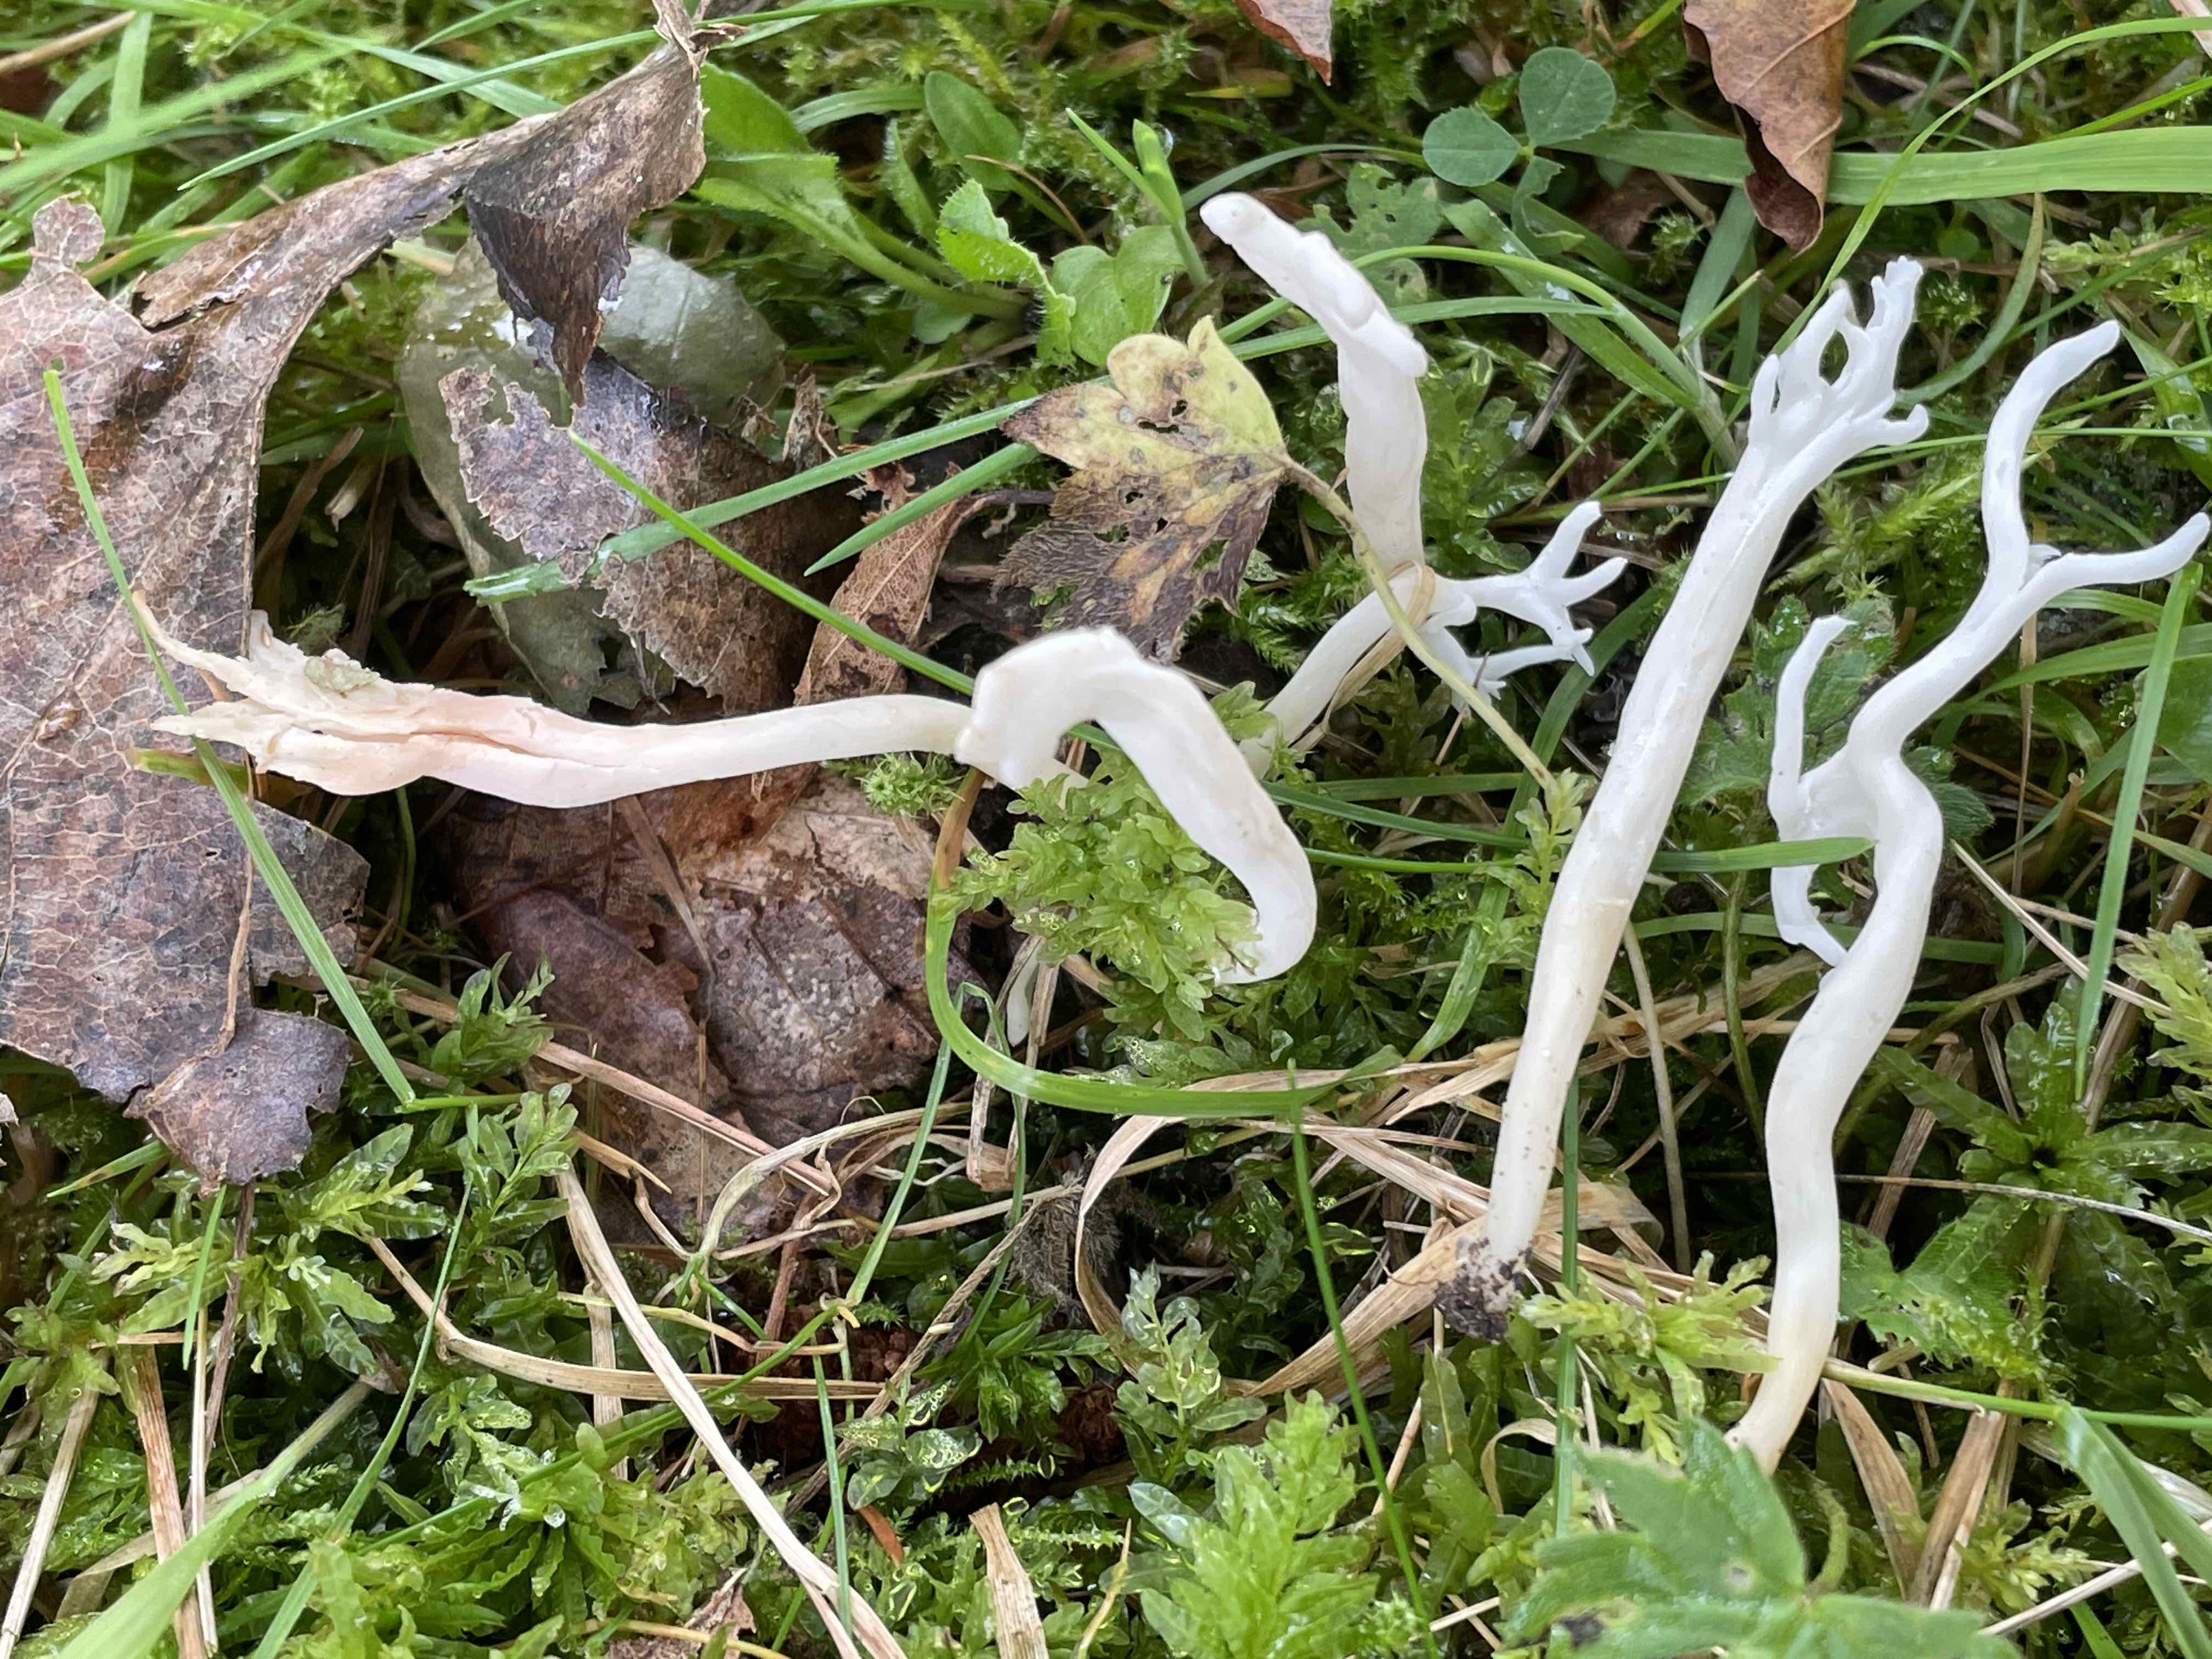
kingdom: Fungi
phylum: Basidiomycota
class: Agaricomycetes
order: Agaricales
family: Clavariaceae
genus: Clavaria
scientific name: Clavaria
